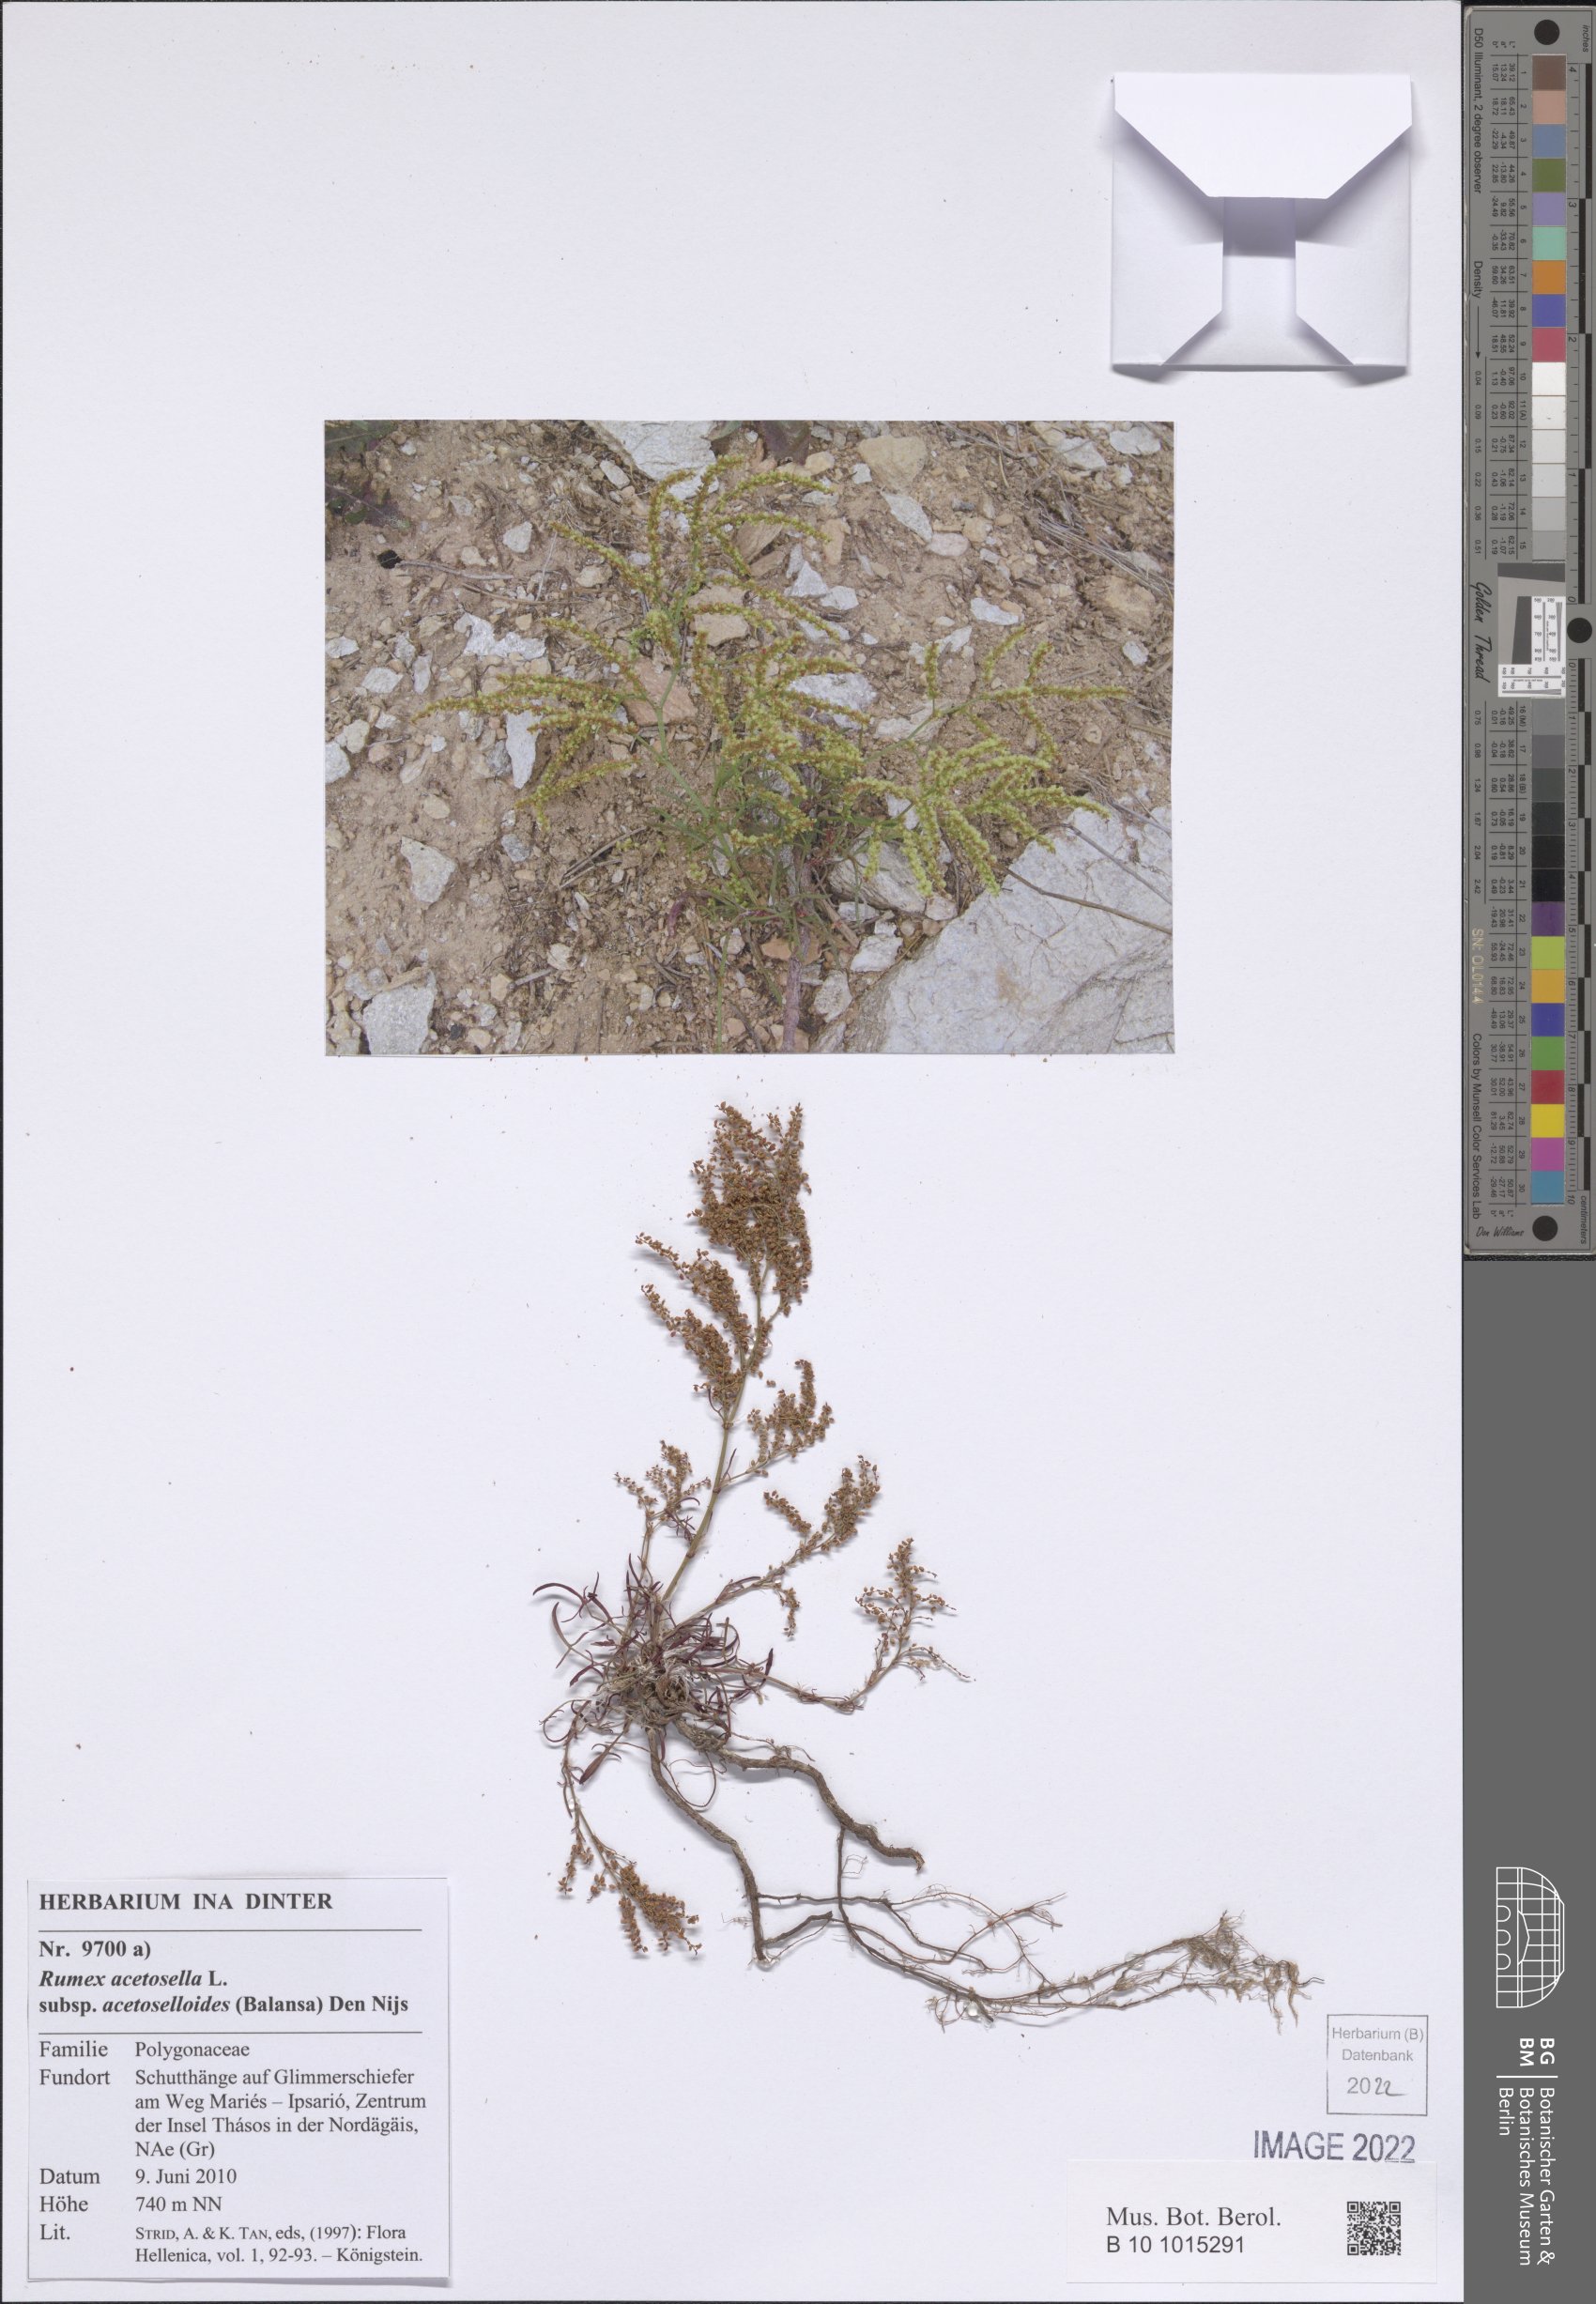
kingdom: Plantae
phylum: Tracheophyta
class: Magnoliopsida
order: Caryophyllales
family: Polygonaceae
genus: Rumex
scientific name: Rumex acetosella
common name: Common sheep sorrel
